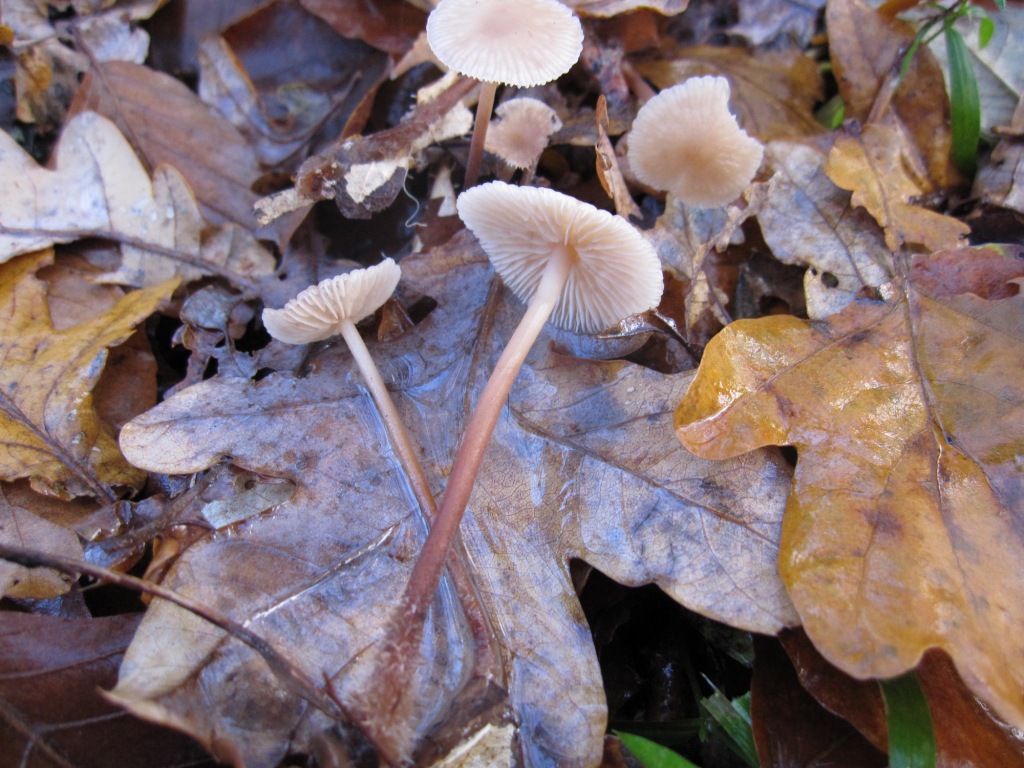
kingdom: Fungi
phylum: Basidiomycota
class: Agaricomycetes
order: Agaricales
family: Omphalotaceae
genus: Mycetinis
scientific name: Mycetinis querceus
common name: ege-løghat
